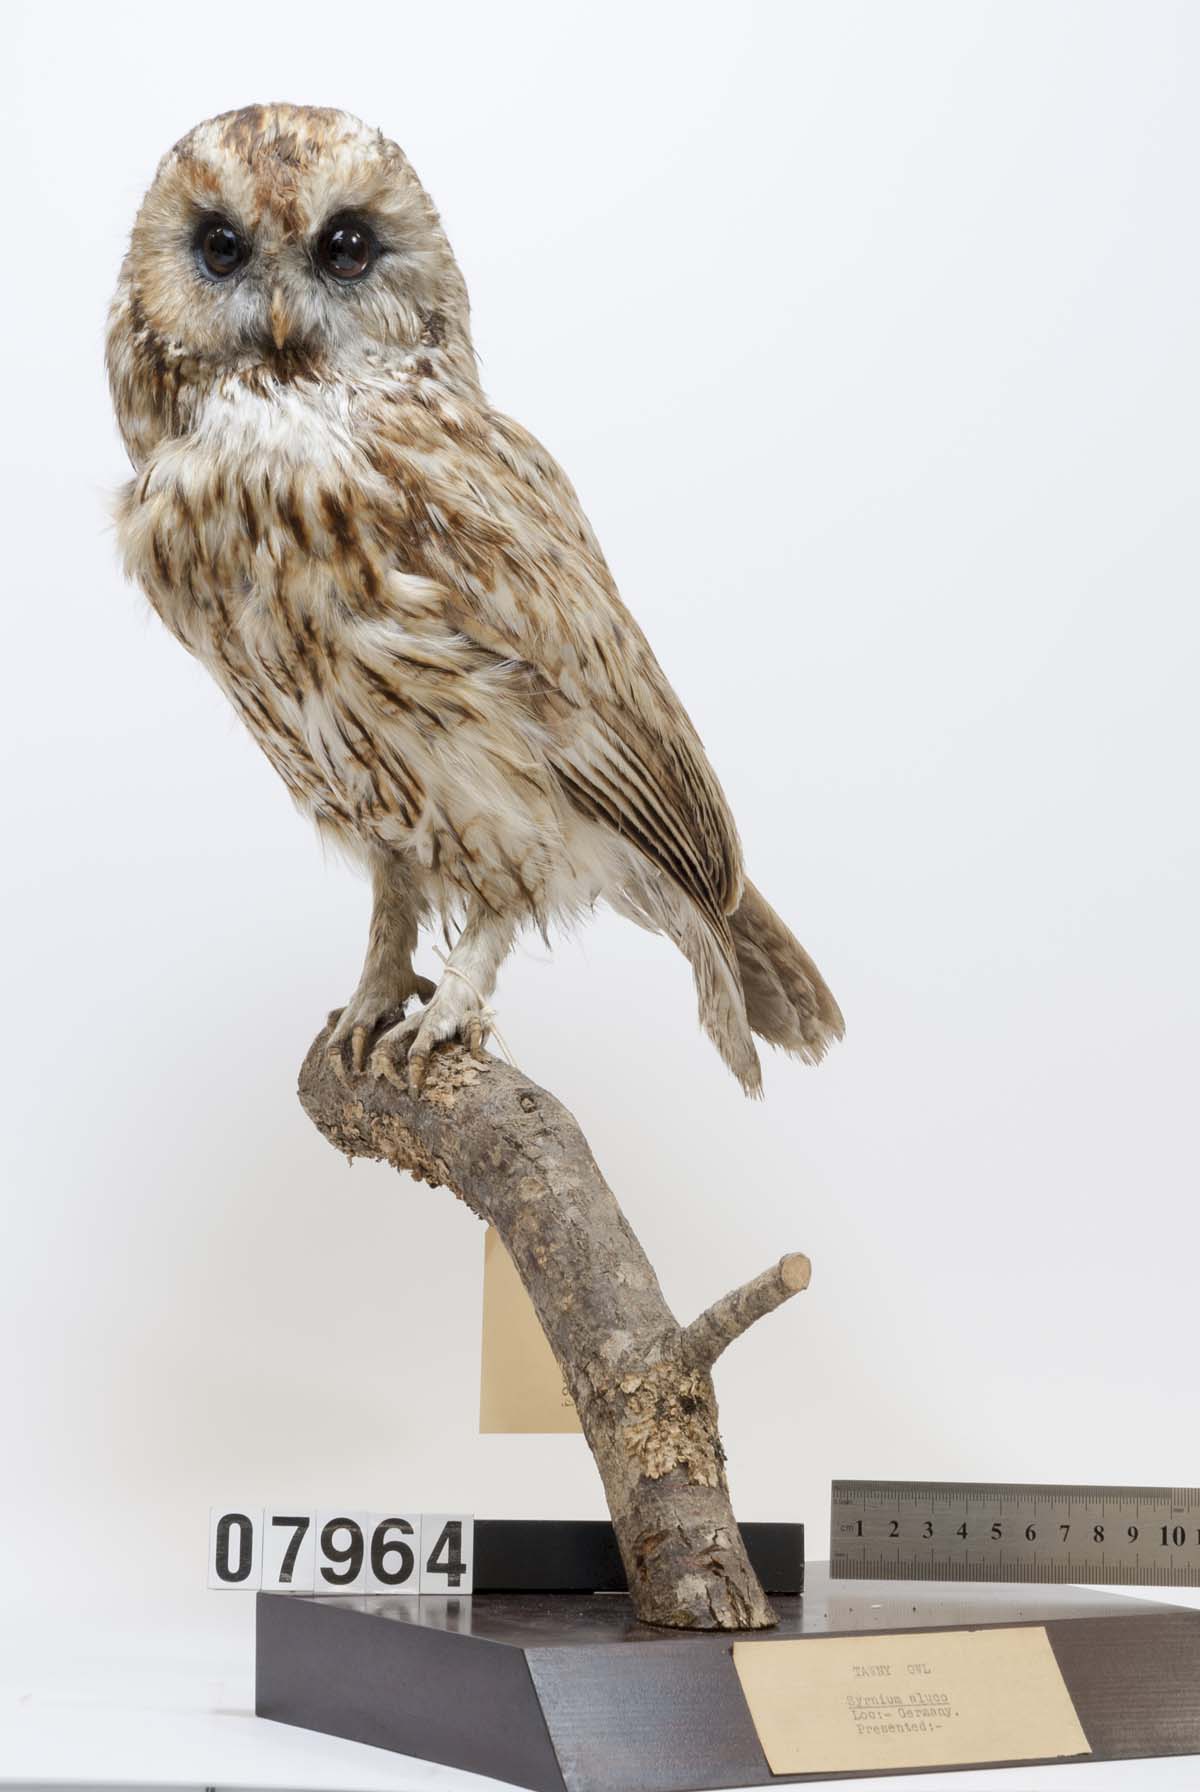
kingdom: Animalia
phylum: Chordata
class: Aves
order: Strigiformes
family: Strigidae
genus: Strix
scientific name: Strix aluco
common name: Tawny owl
